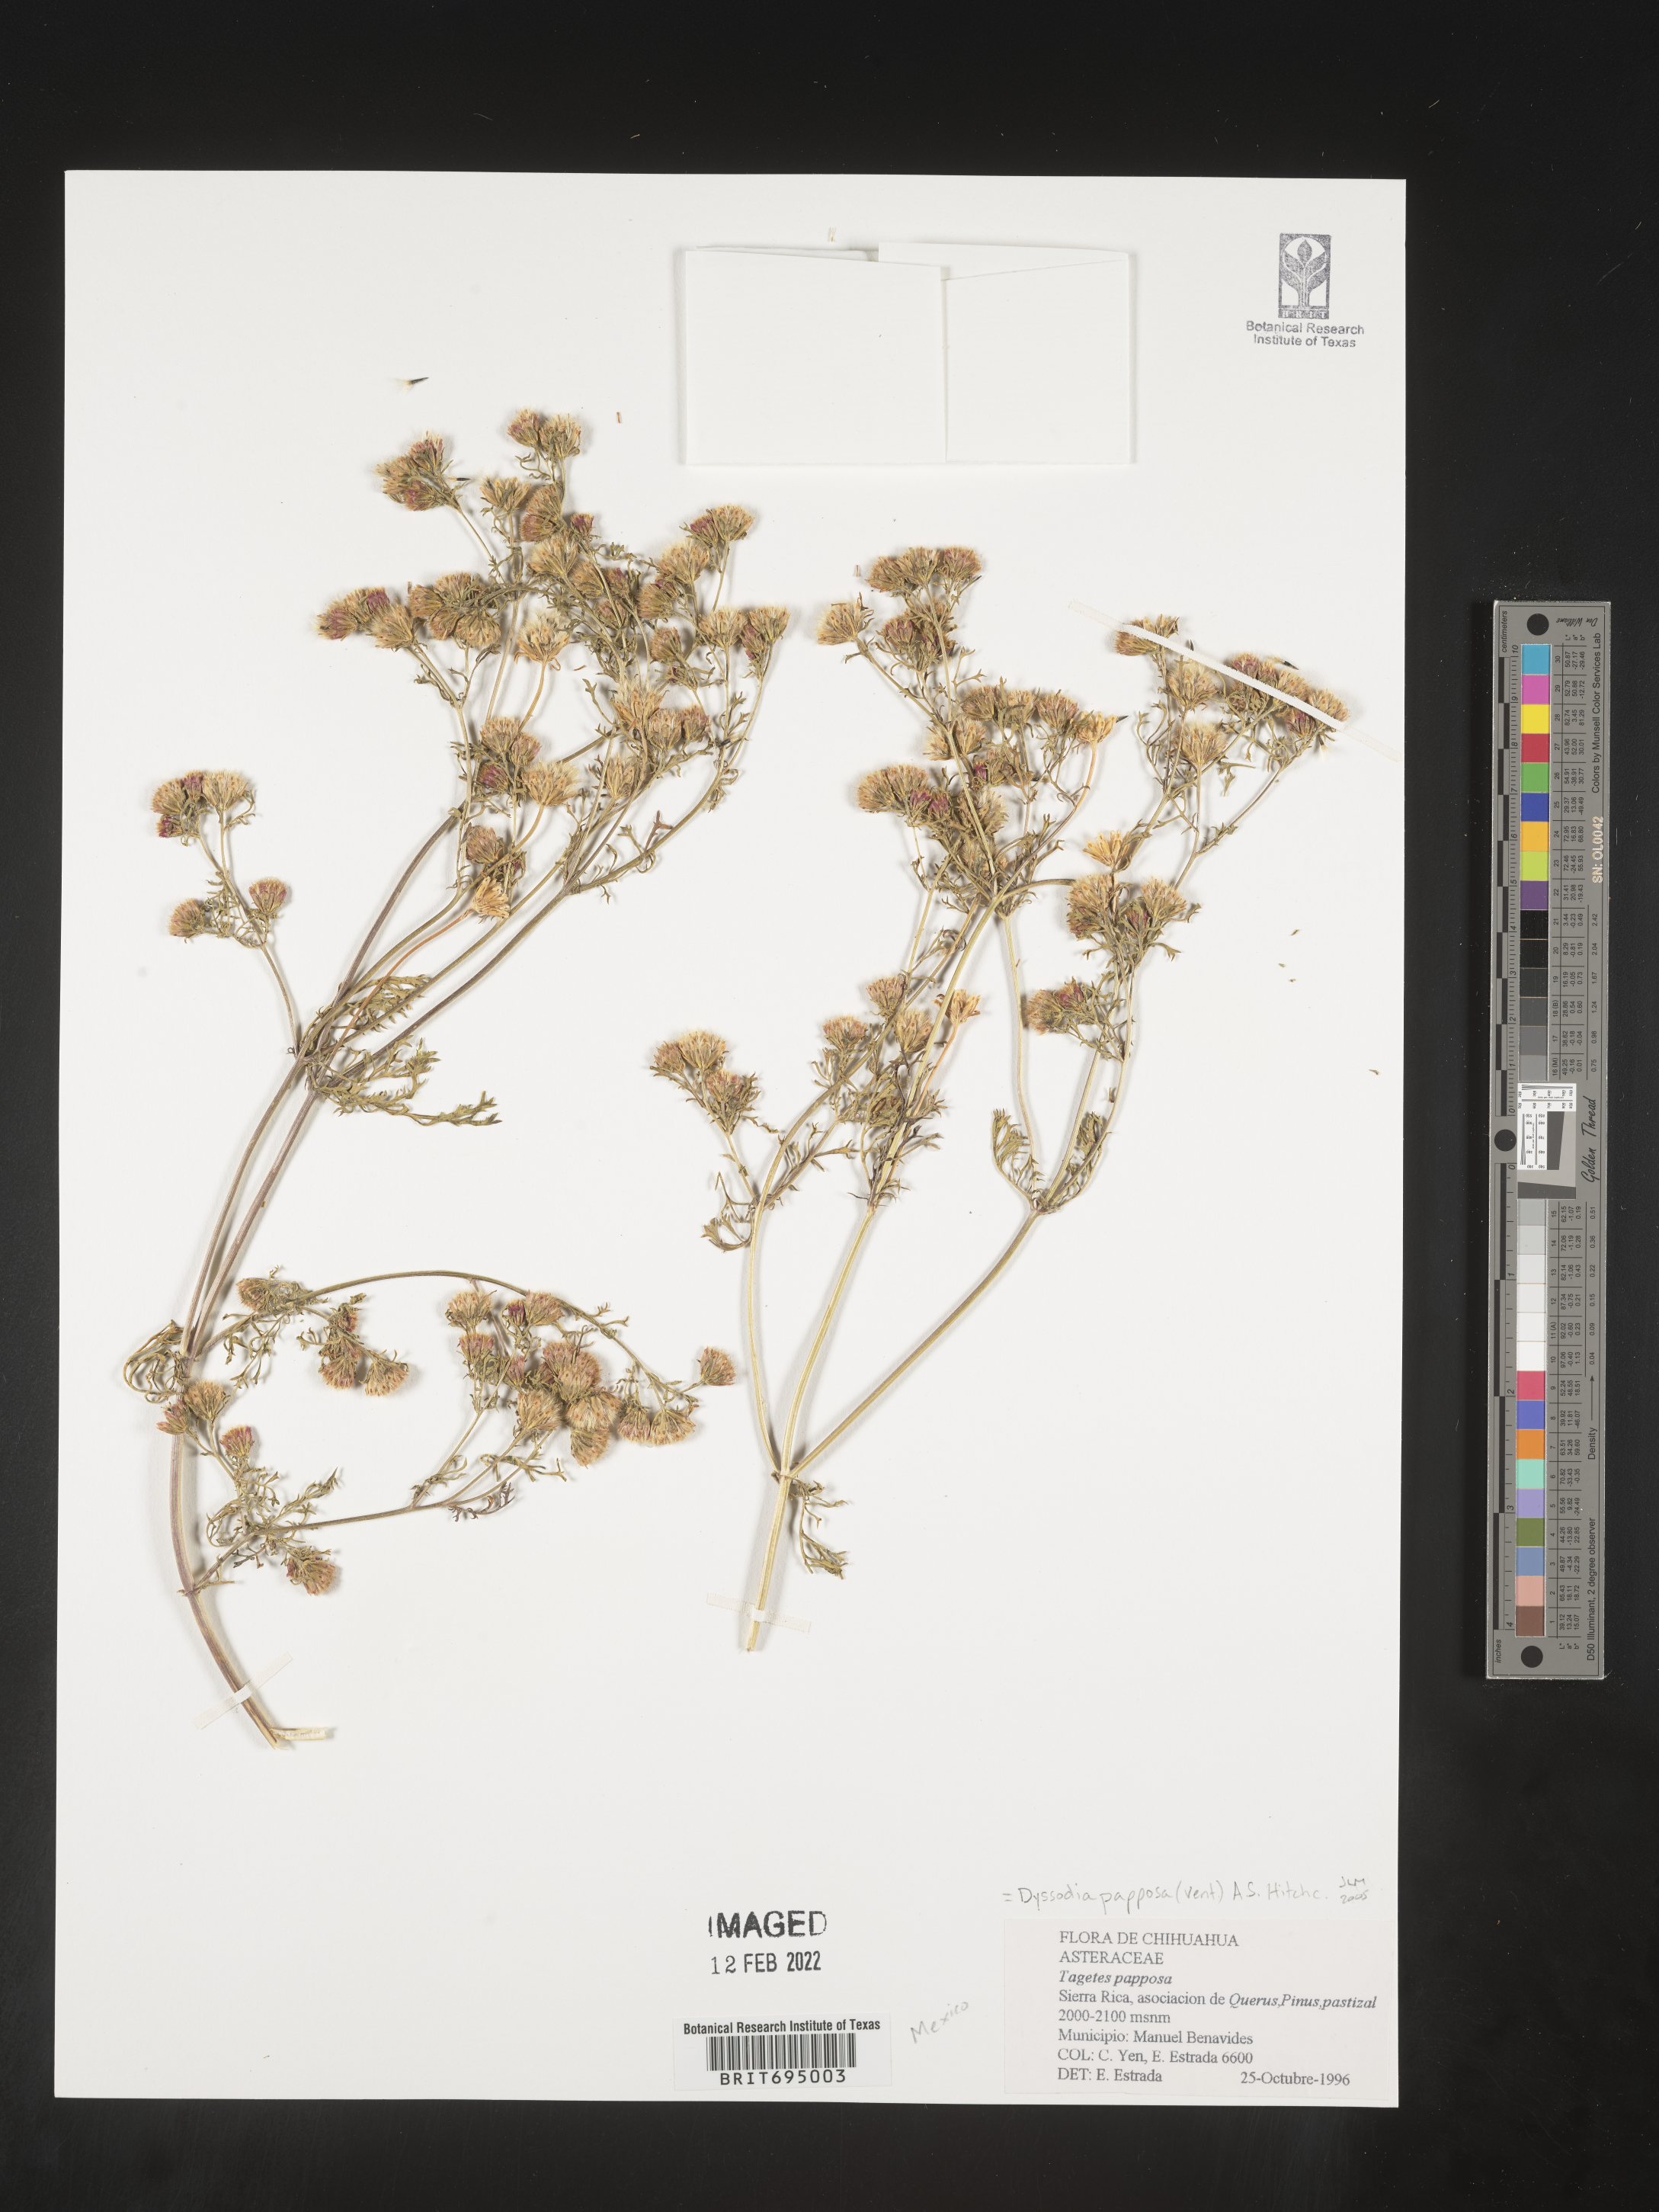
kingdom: Plantae
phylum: Tracheophyta
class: Magnoliopsida
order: Asterales
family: Asteraceae
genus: Dyssodia
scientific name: Dyssodia papposa
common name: Dogweed
